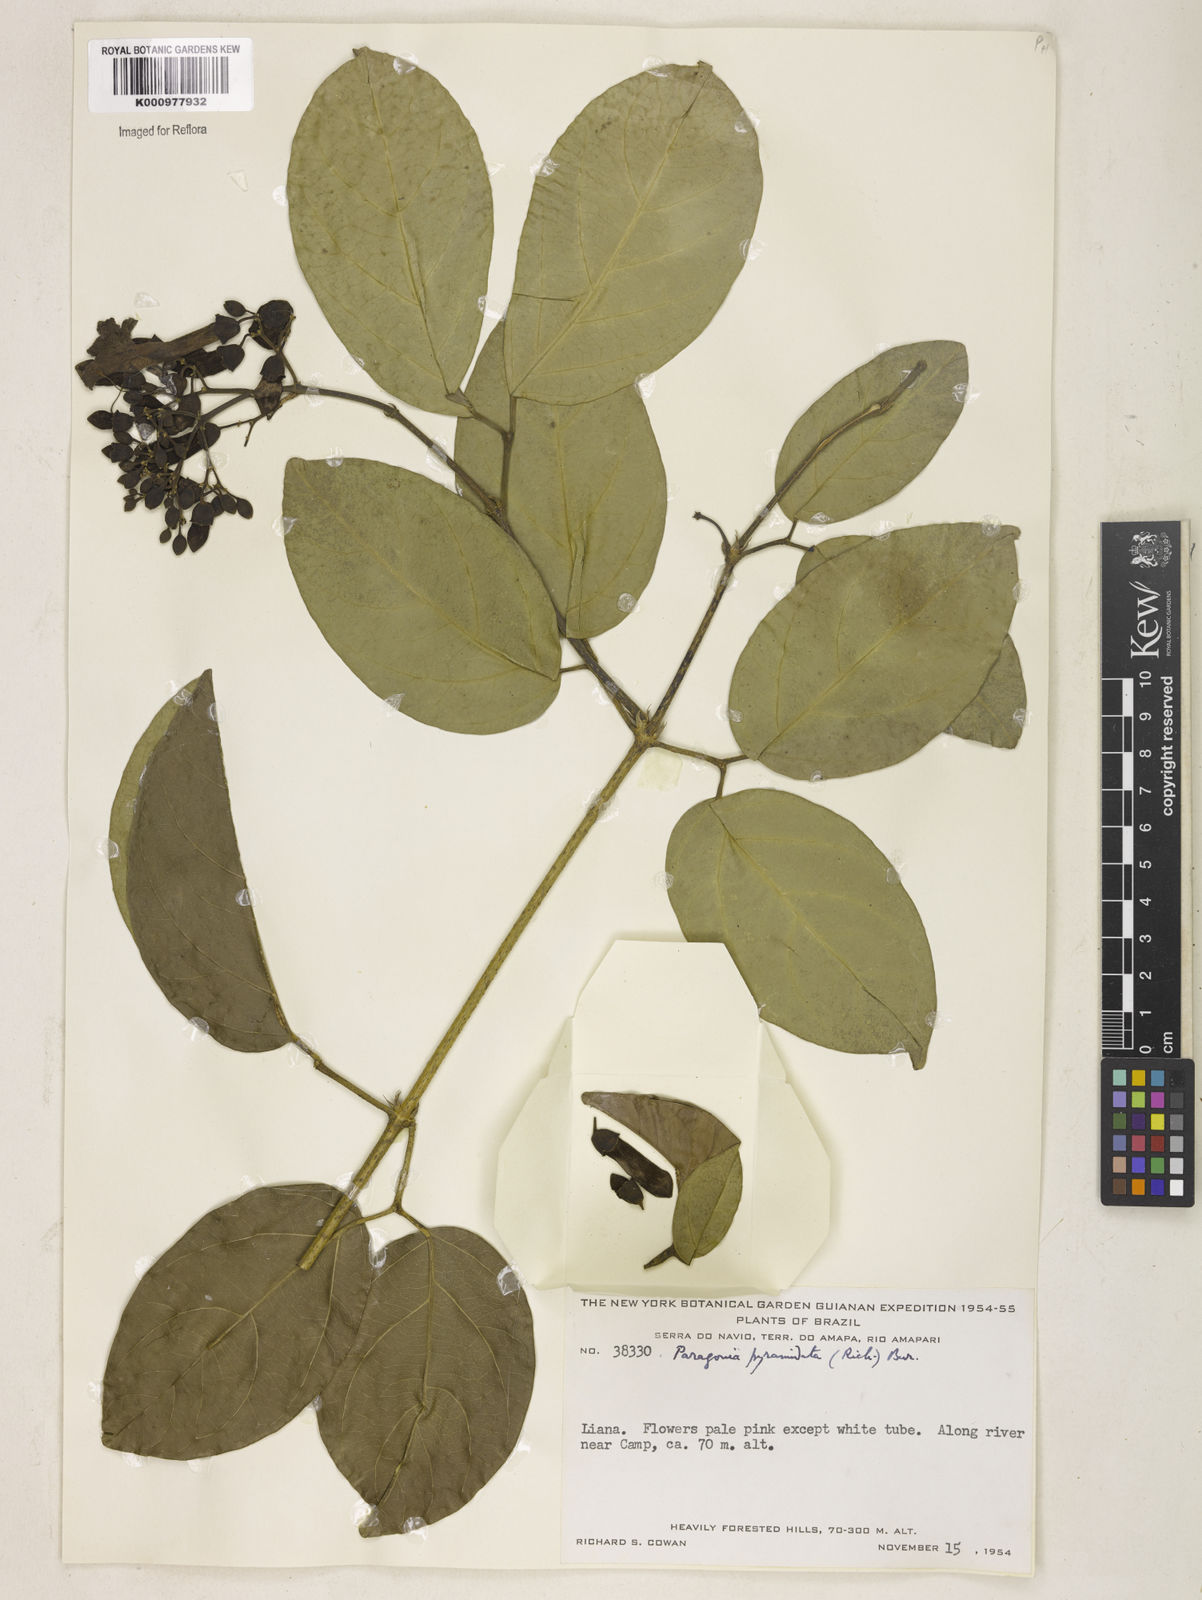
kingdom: Plantae
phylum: Tracheophyta
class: Magnoliopsida
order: Lamiales
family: Bignoniaceae
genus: Tanaecium
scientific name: Tanaecium pyramidatum
